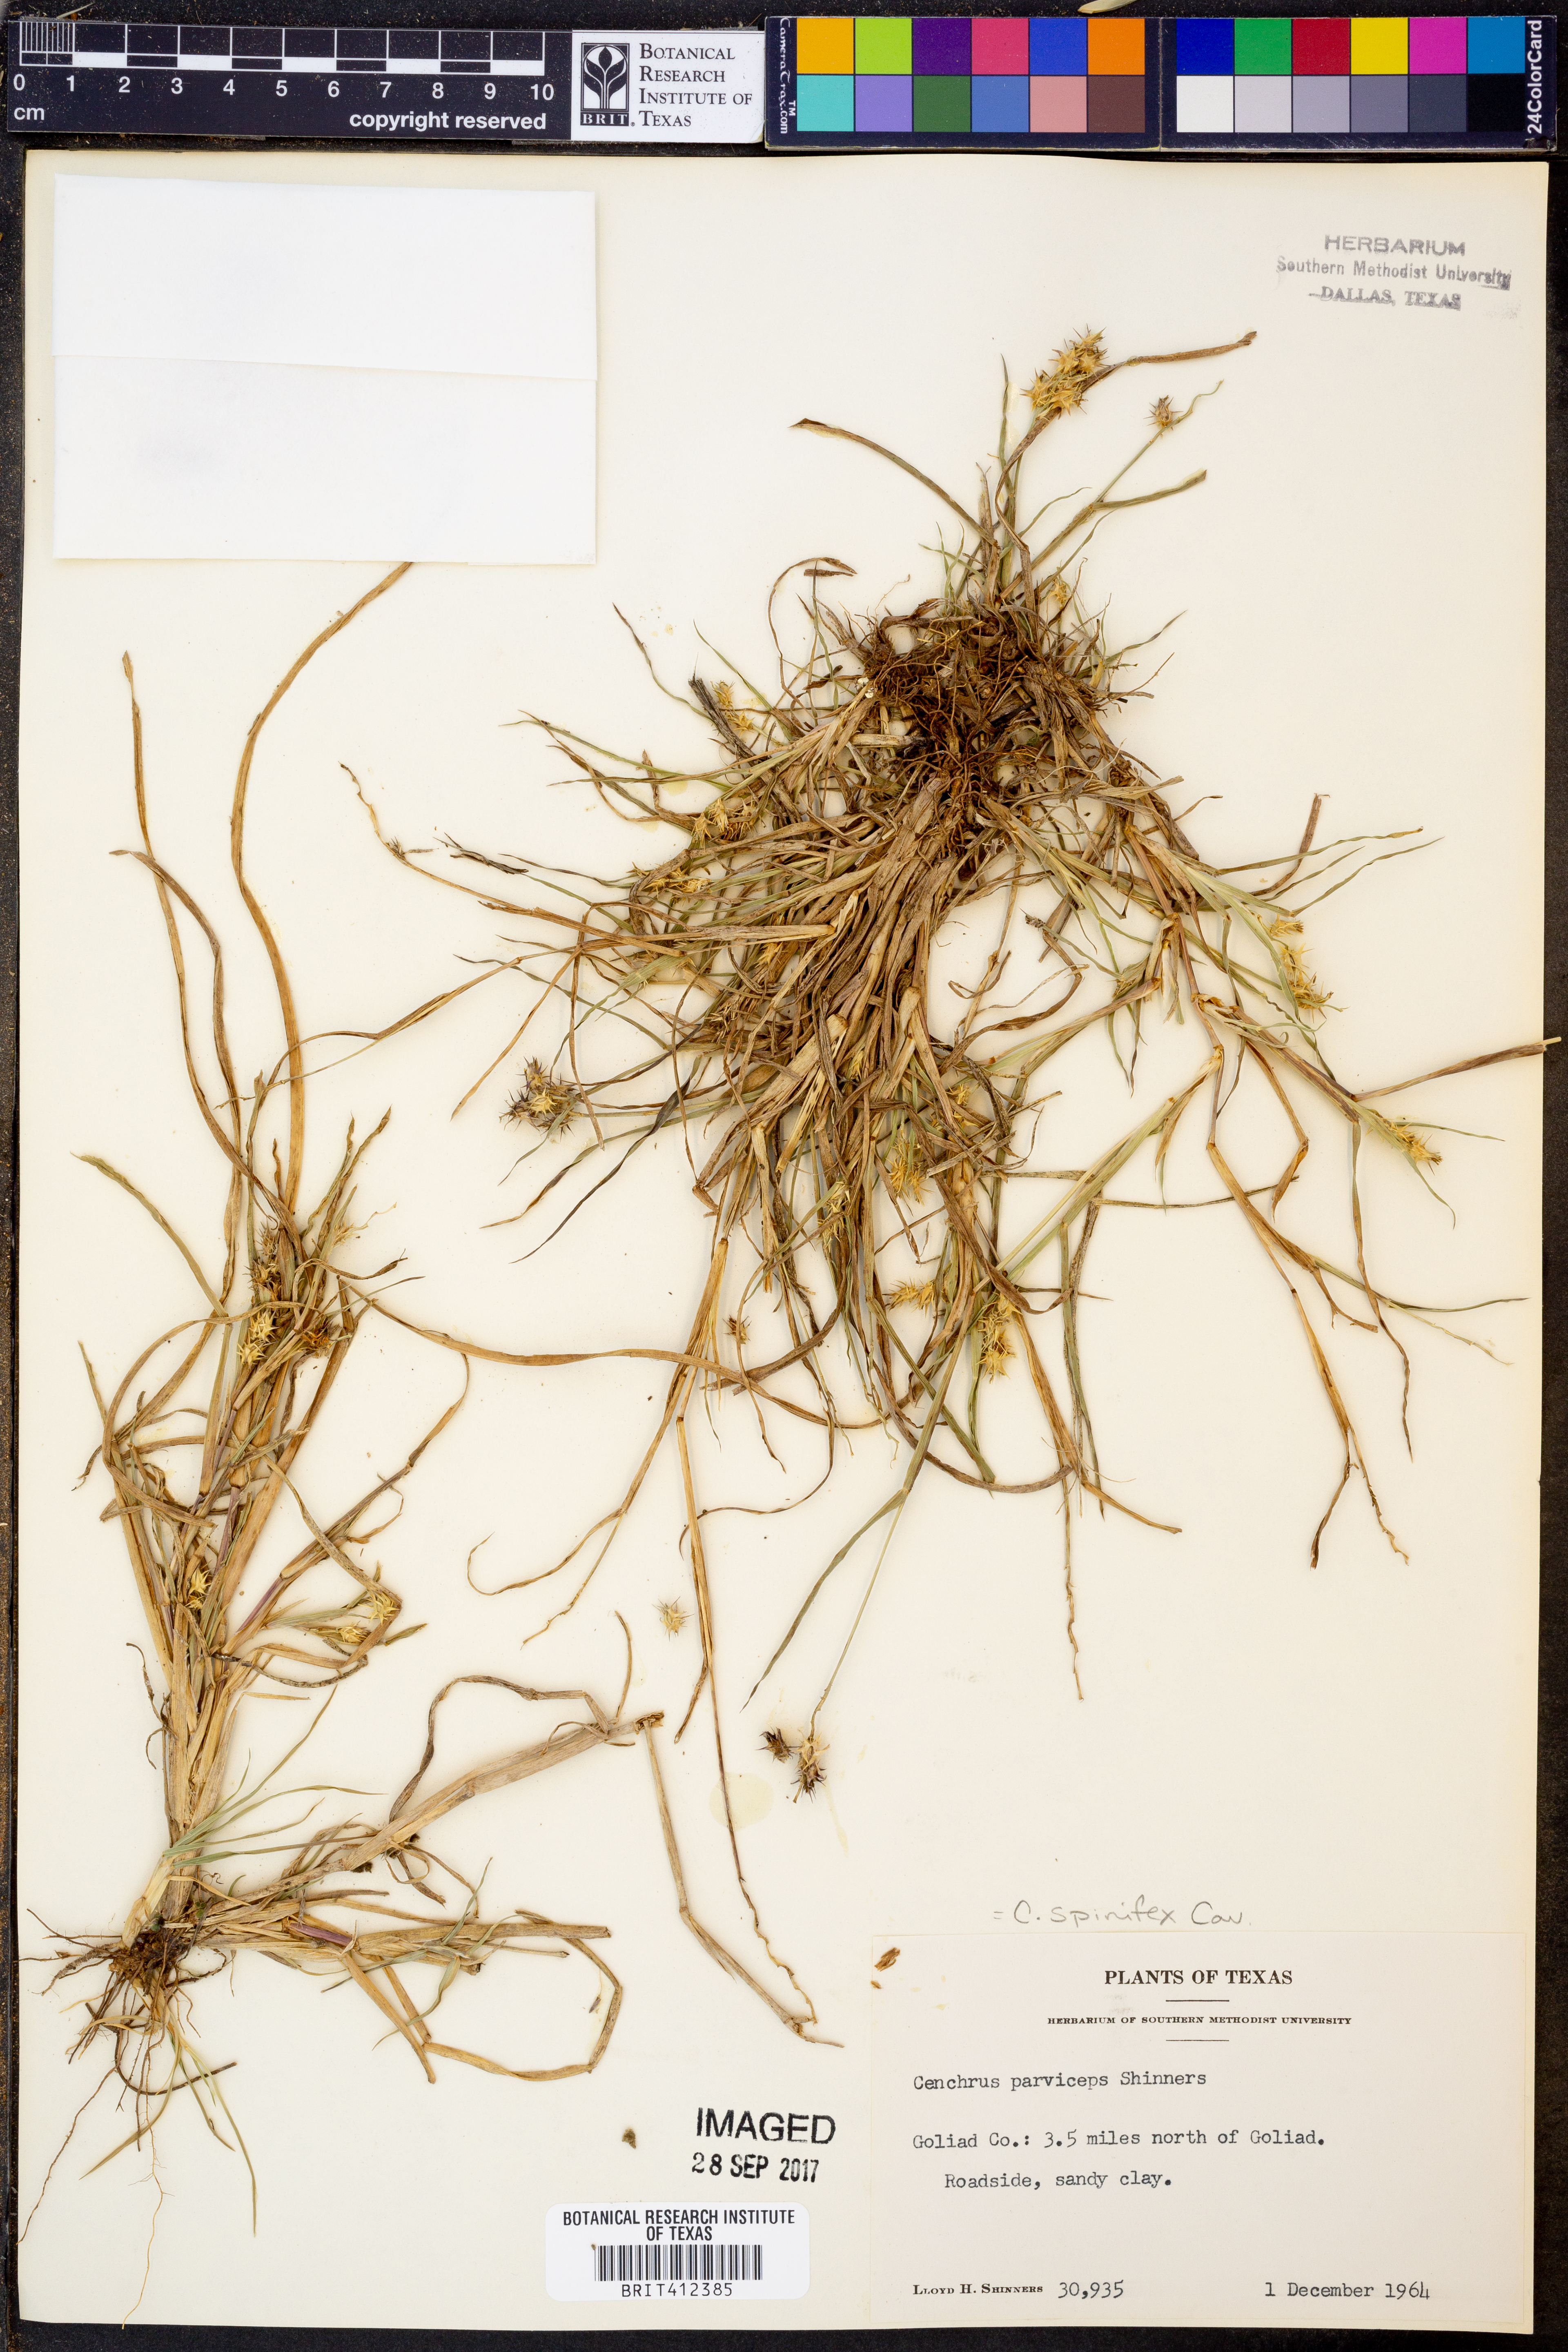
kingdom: Plantae
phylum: Tracheophyta
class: Liliopsida
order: Poales
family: Poaceae
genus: Cenchrus
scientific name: Cenchrus spinifex
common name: Coast sandbur
